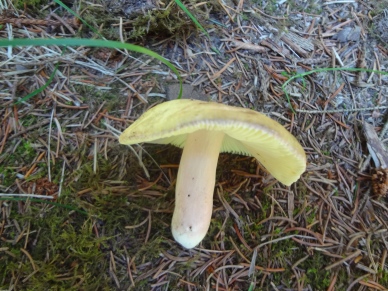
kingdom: Fungi
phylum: Basidiomycota
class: Agaricomycetes
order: Russulales
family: Russulaceae
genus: Russula
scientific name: Russula violeipes
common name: ferskengul skørhat
